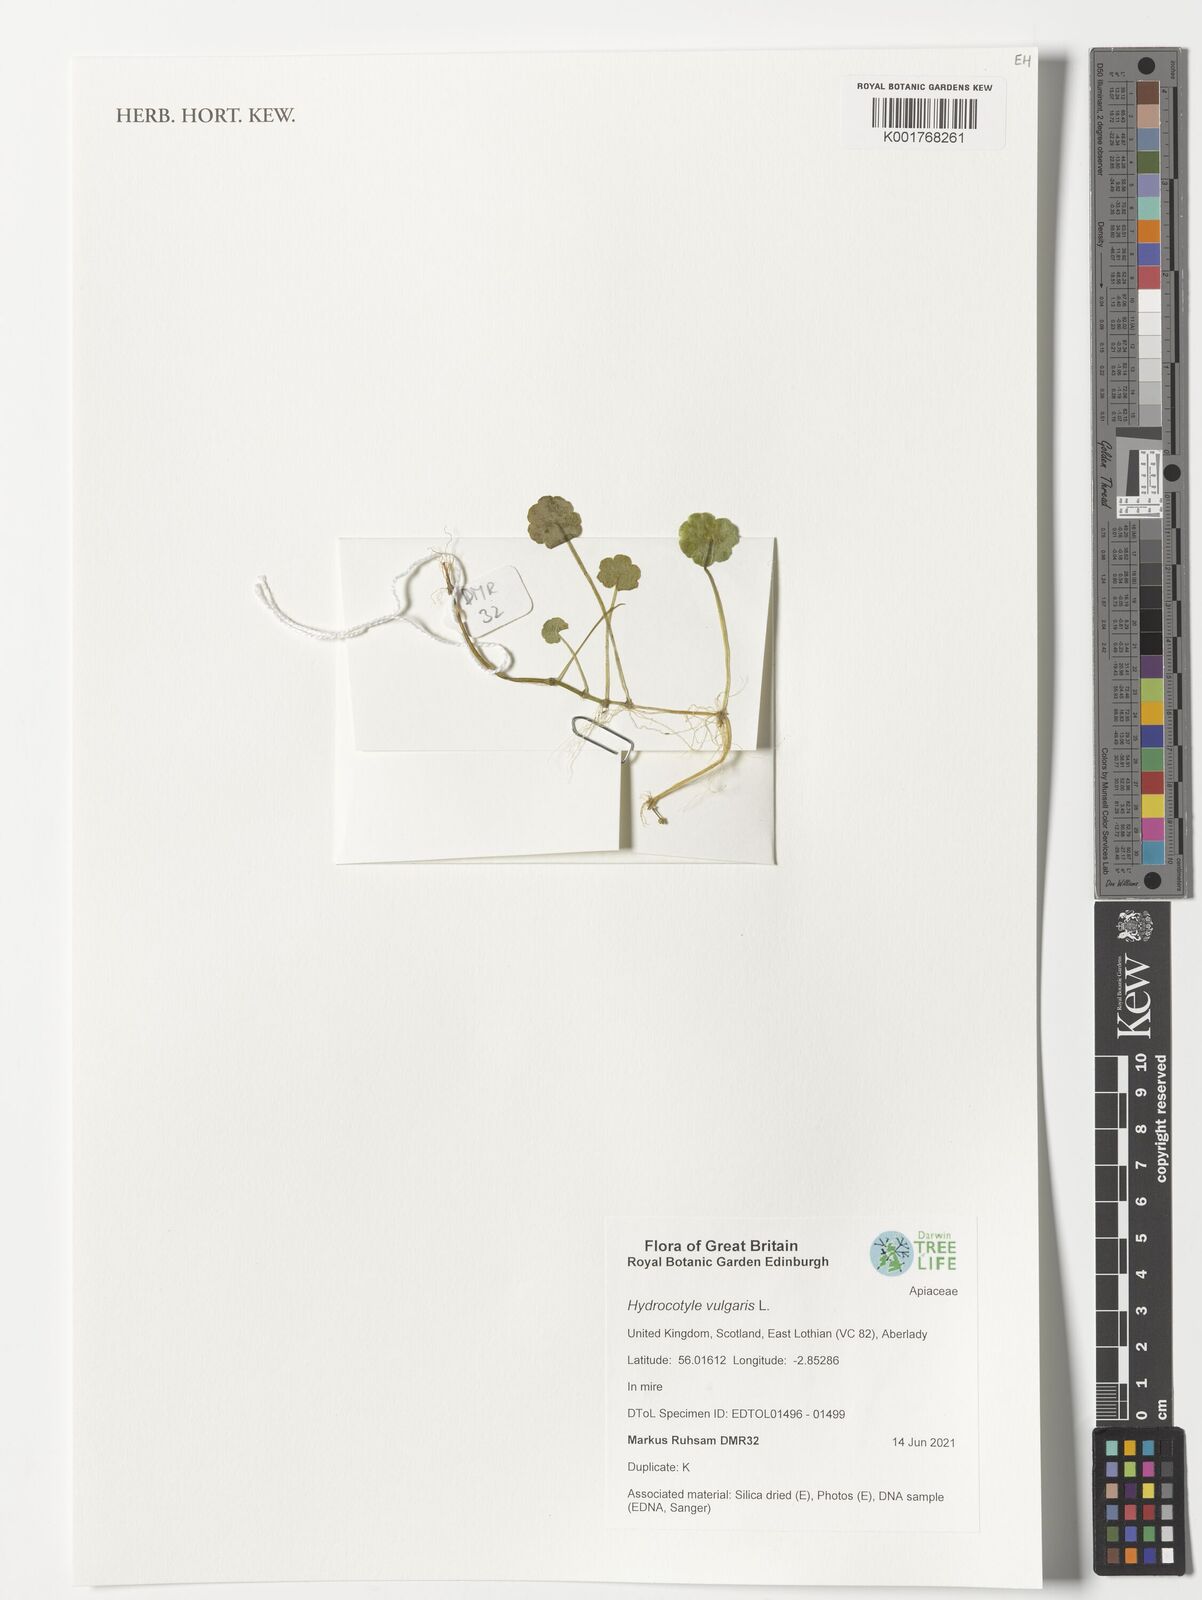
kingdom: Plantae
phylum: Tracheophyta
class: Magnoliopsida
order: Apiales
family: Araliaceae
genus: Hydrocotyle
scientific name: Hydrocotyle vulgaris
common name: Marsh pennywort
